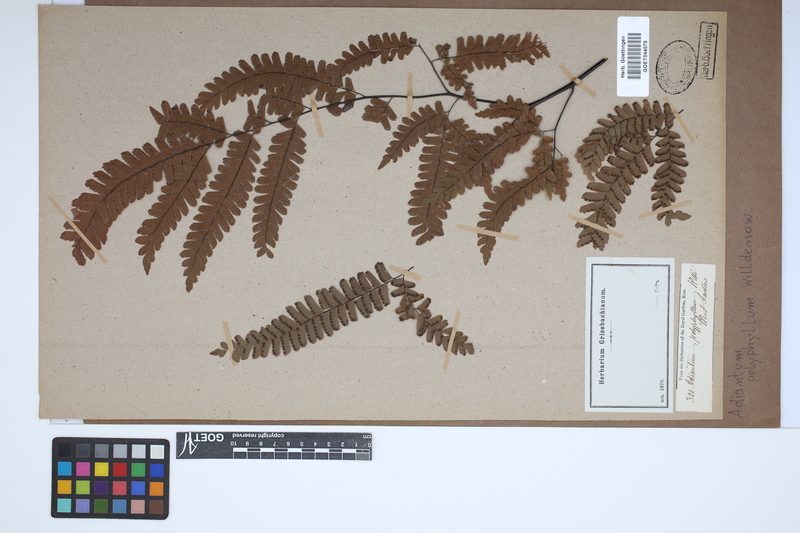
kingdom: Plantae
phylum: Tracheophyta
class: Polypodiopsida
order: Polypodiales
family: Pteridaceae
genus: Adiantum
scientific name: Adiantum polyphyllum
